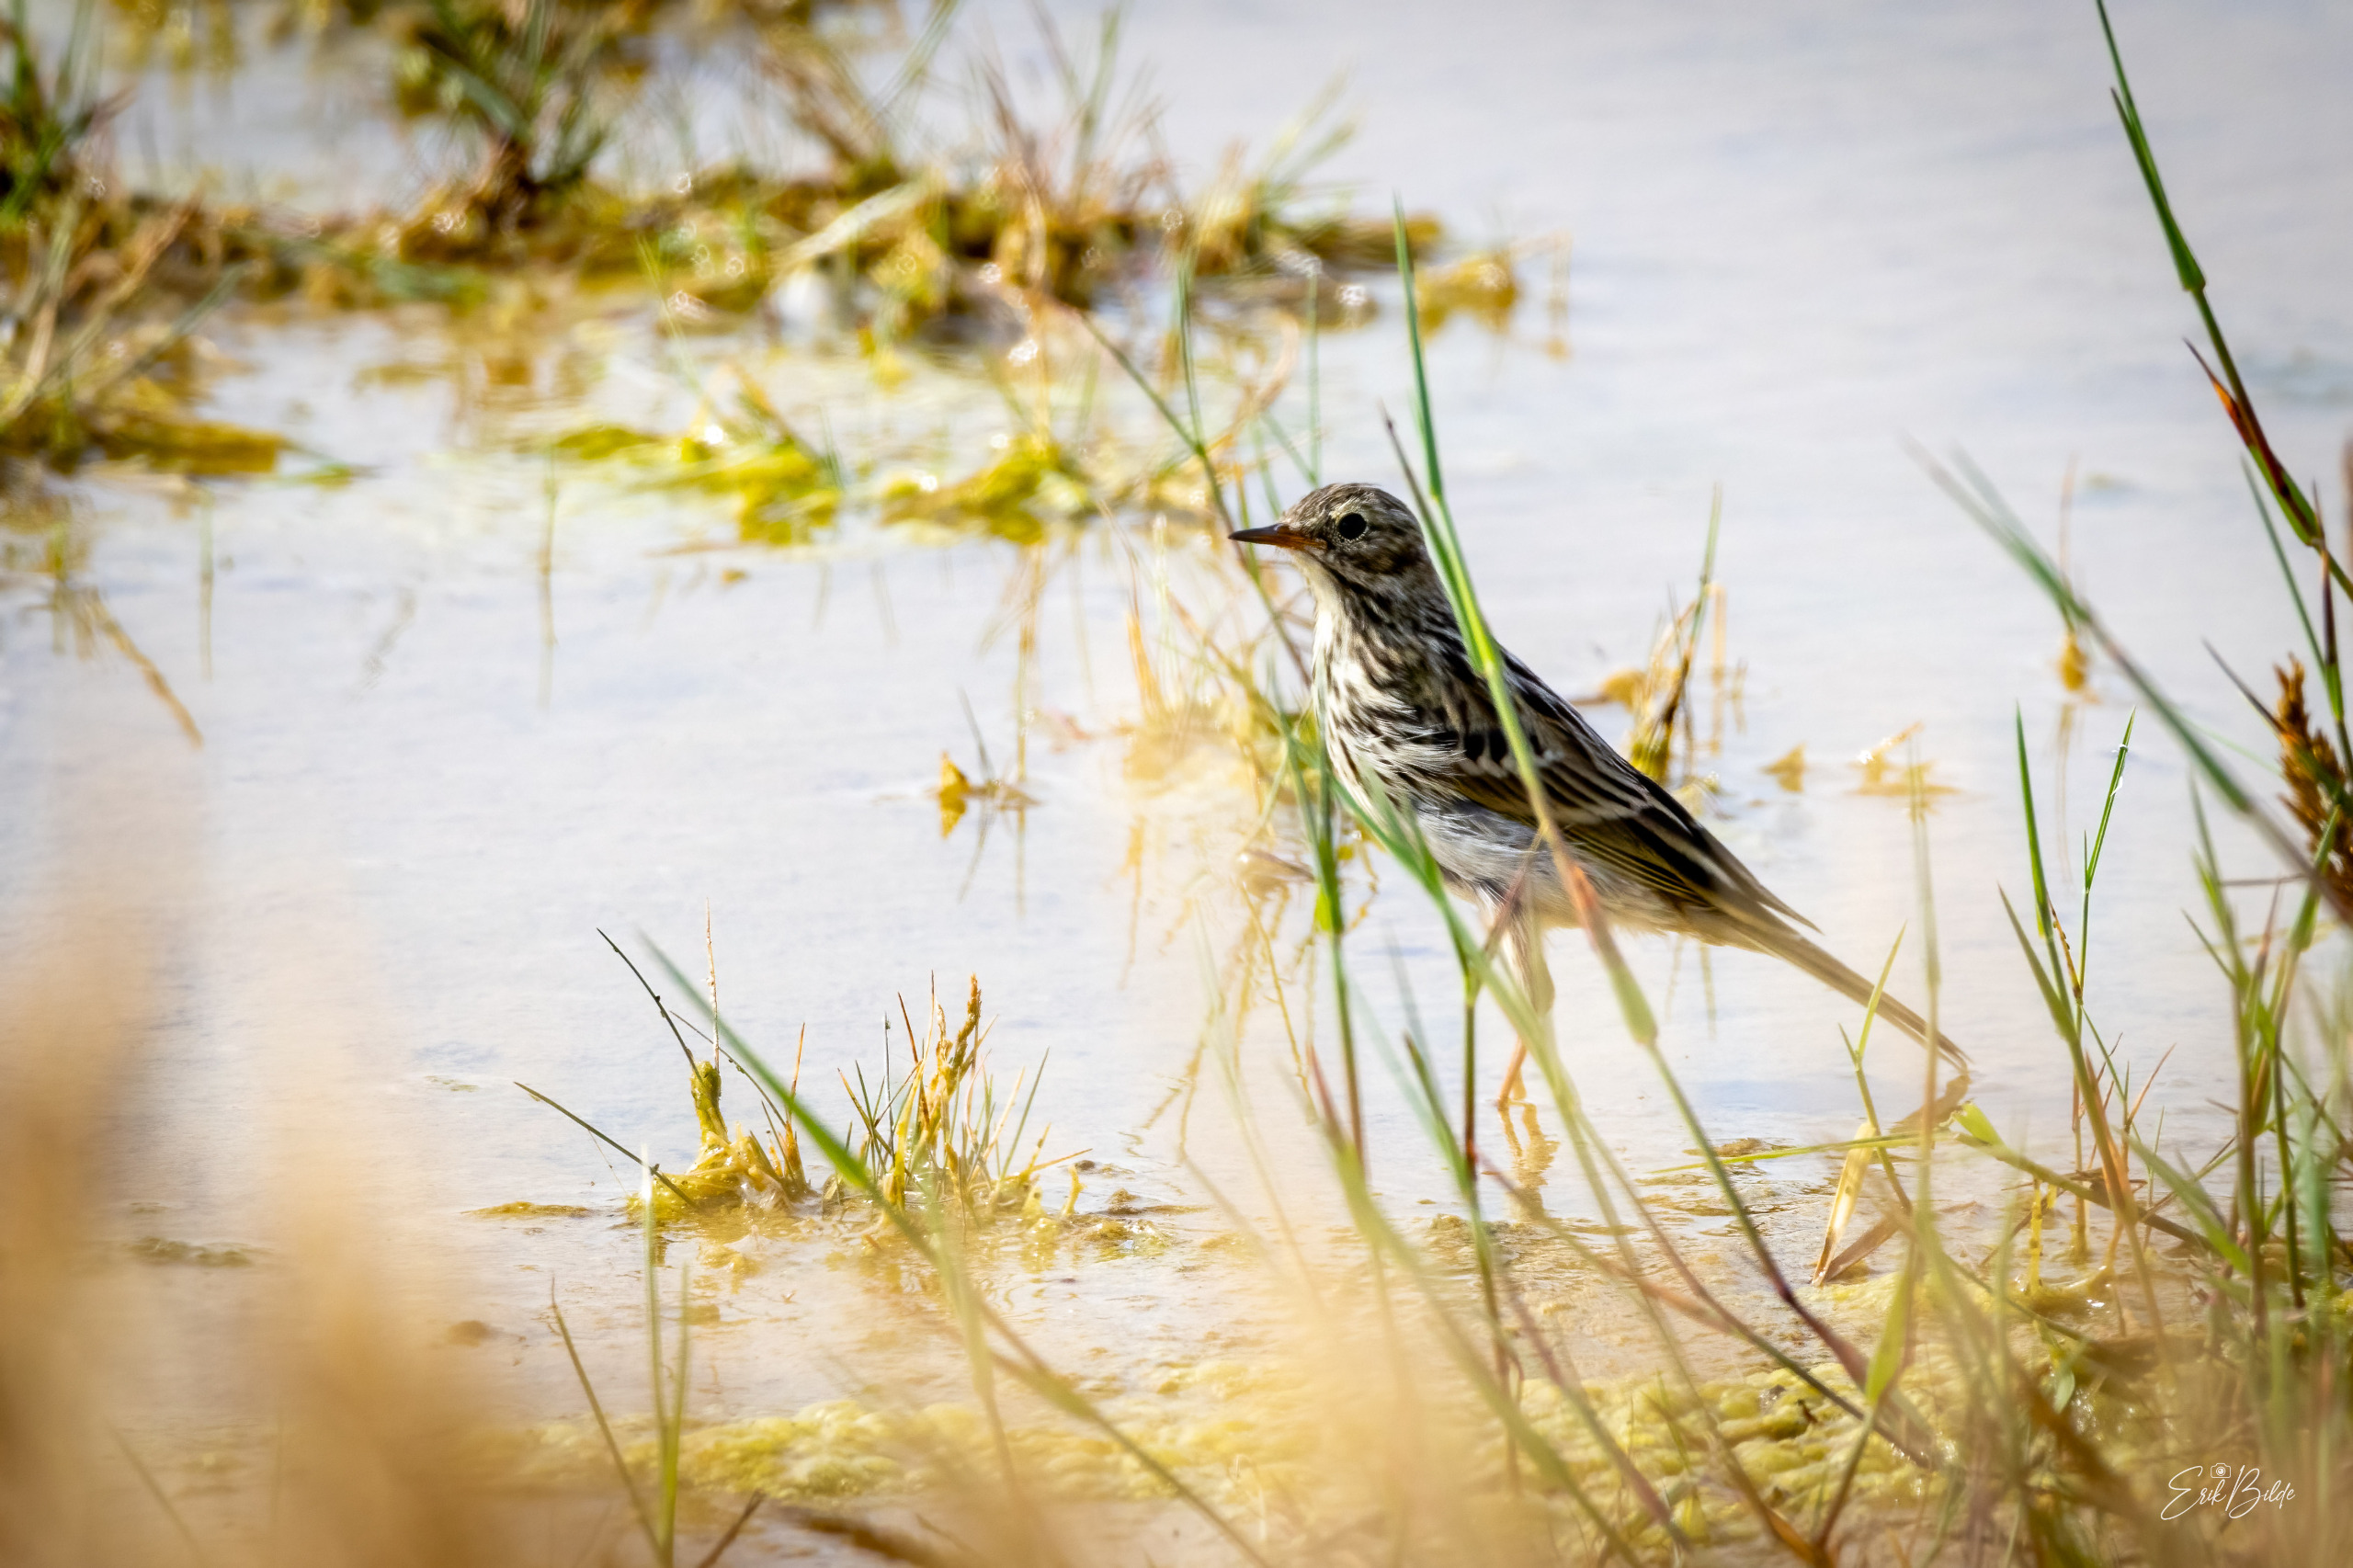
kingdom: Animalia
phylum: Chordata
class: Aves
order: Passeriformes
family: Motacillidae
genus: Anthus
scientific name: Anthus pratensis
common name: Engpiber
